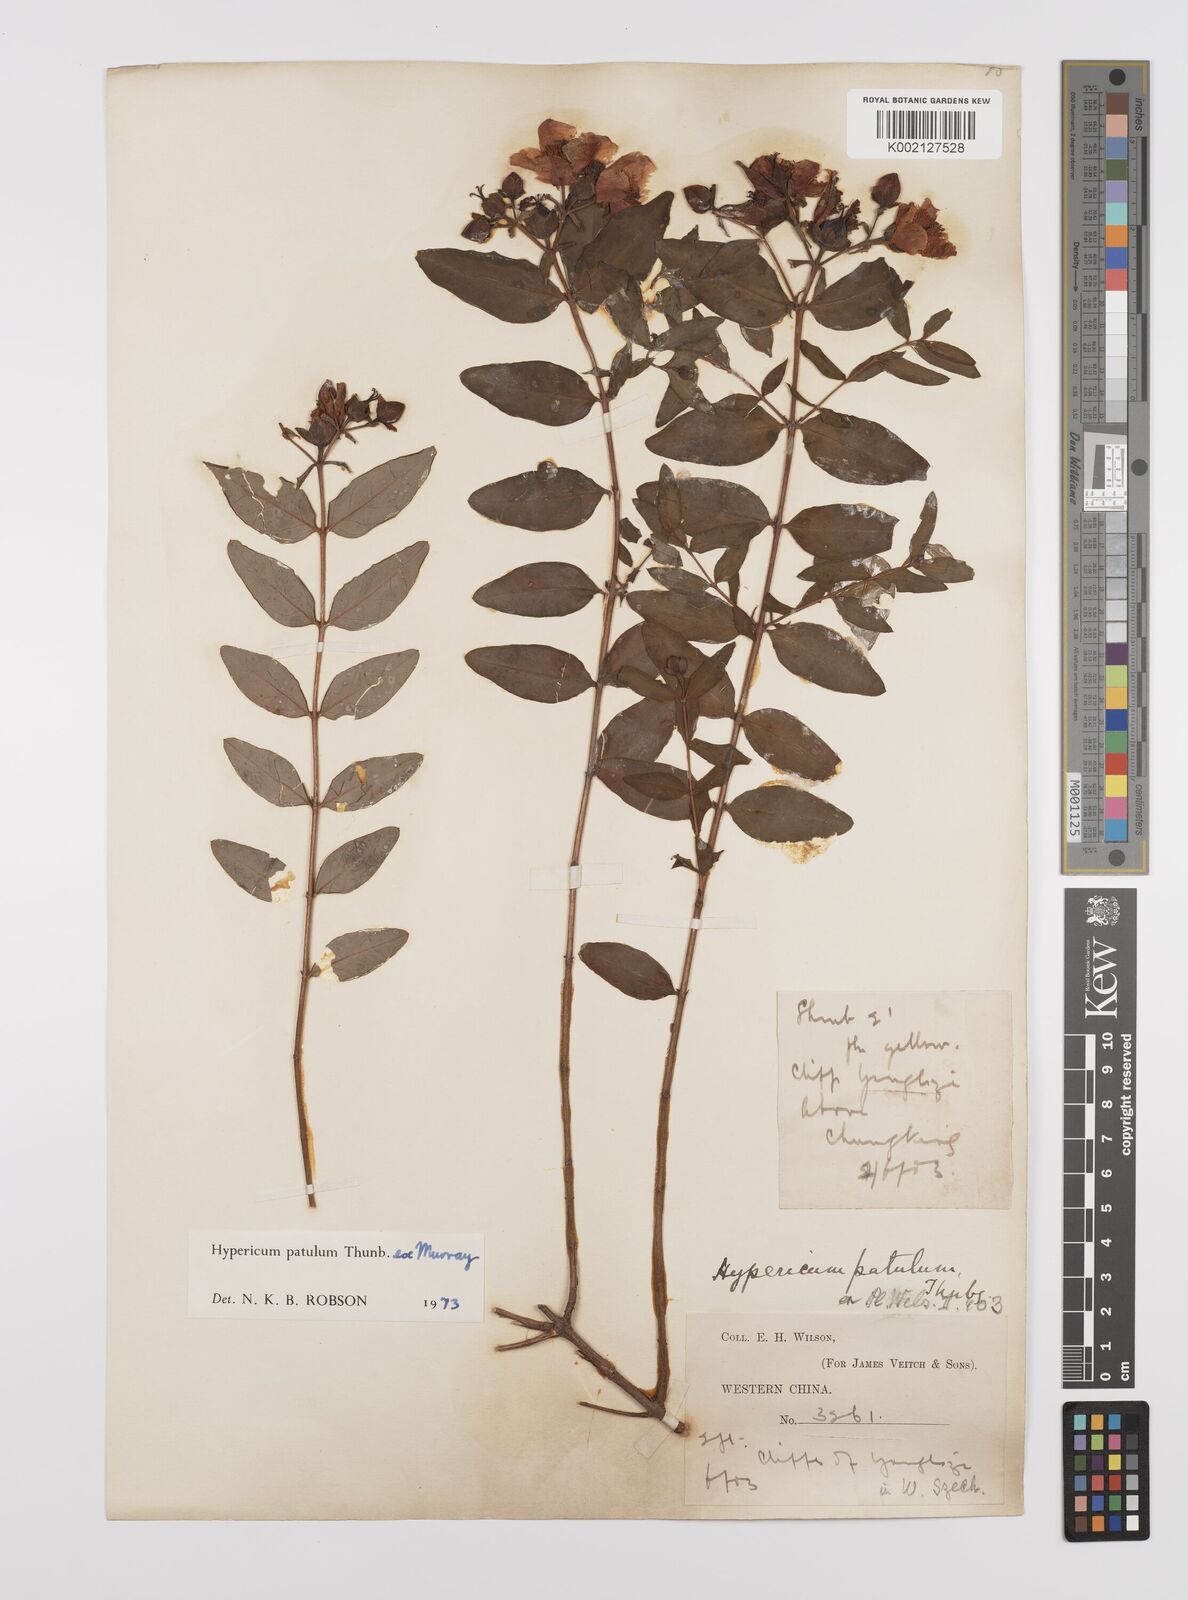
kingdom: Plantae
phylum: Tracheophyta
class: Magnoliopsida
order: Malpighiales
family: Hypericaceae
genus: Hypericum
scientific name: Hypericum patulum
